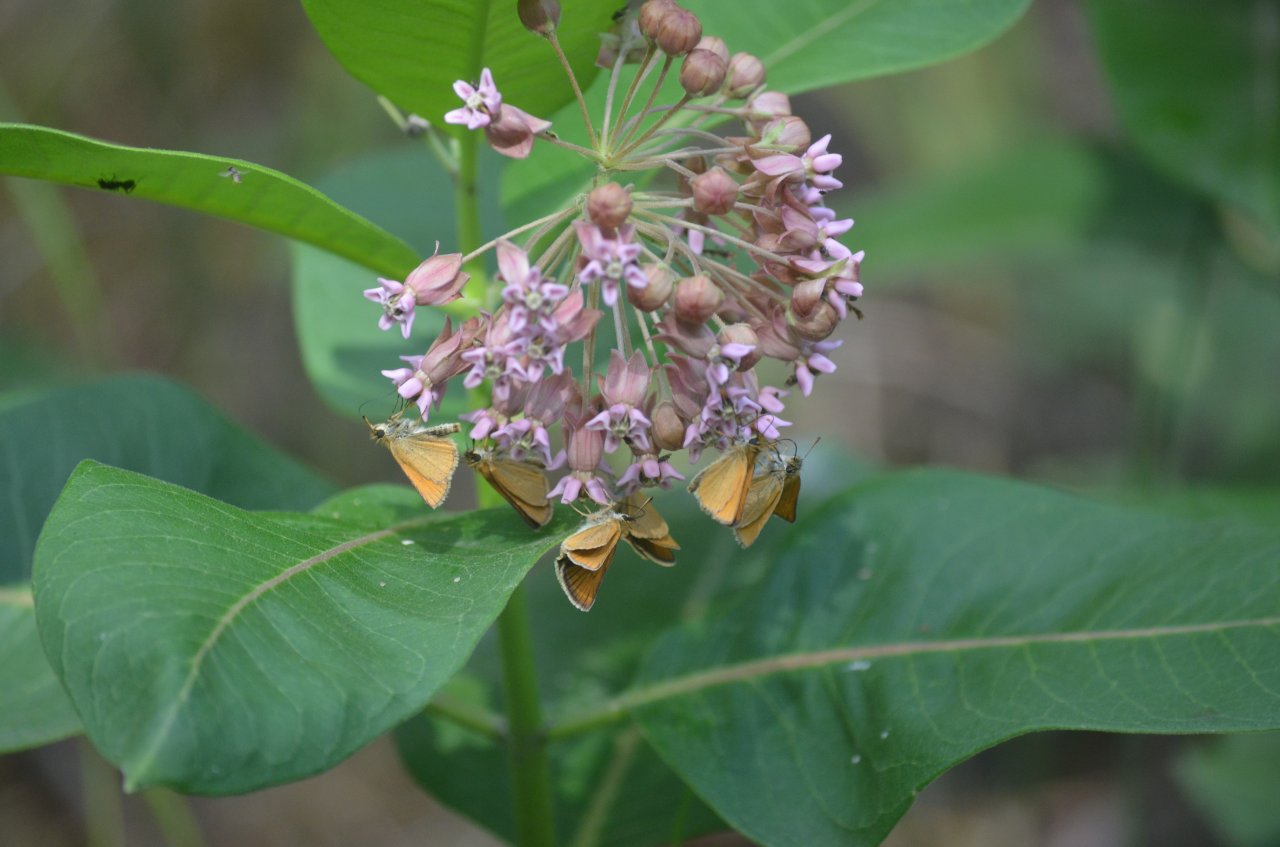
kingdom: Animalia
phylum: Arthropoda
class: Insecta
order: Lepidoptera
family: Hesperiidae
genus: Thymelicus
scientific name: Thymelicus lineola
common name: European Skipper
